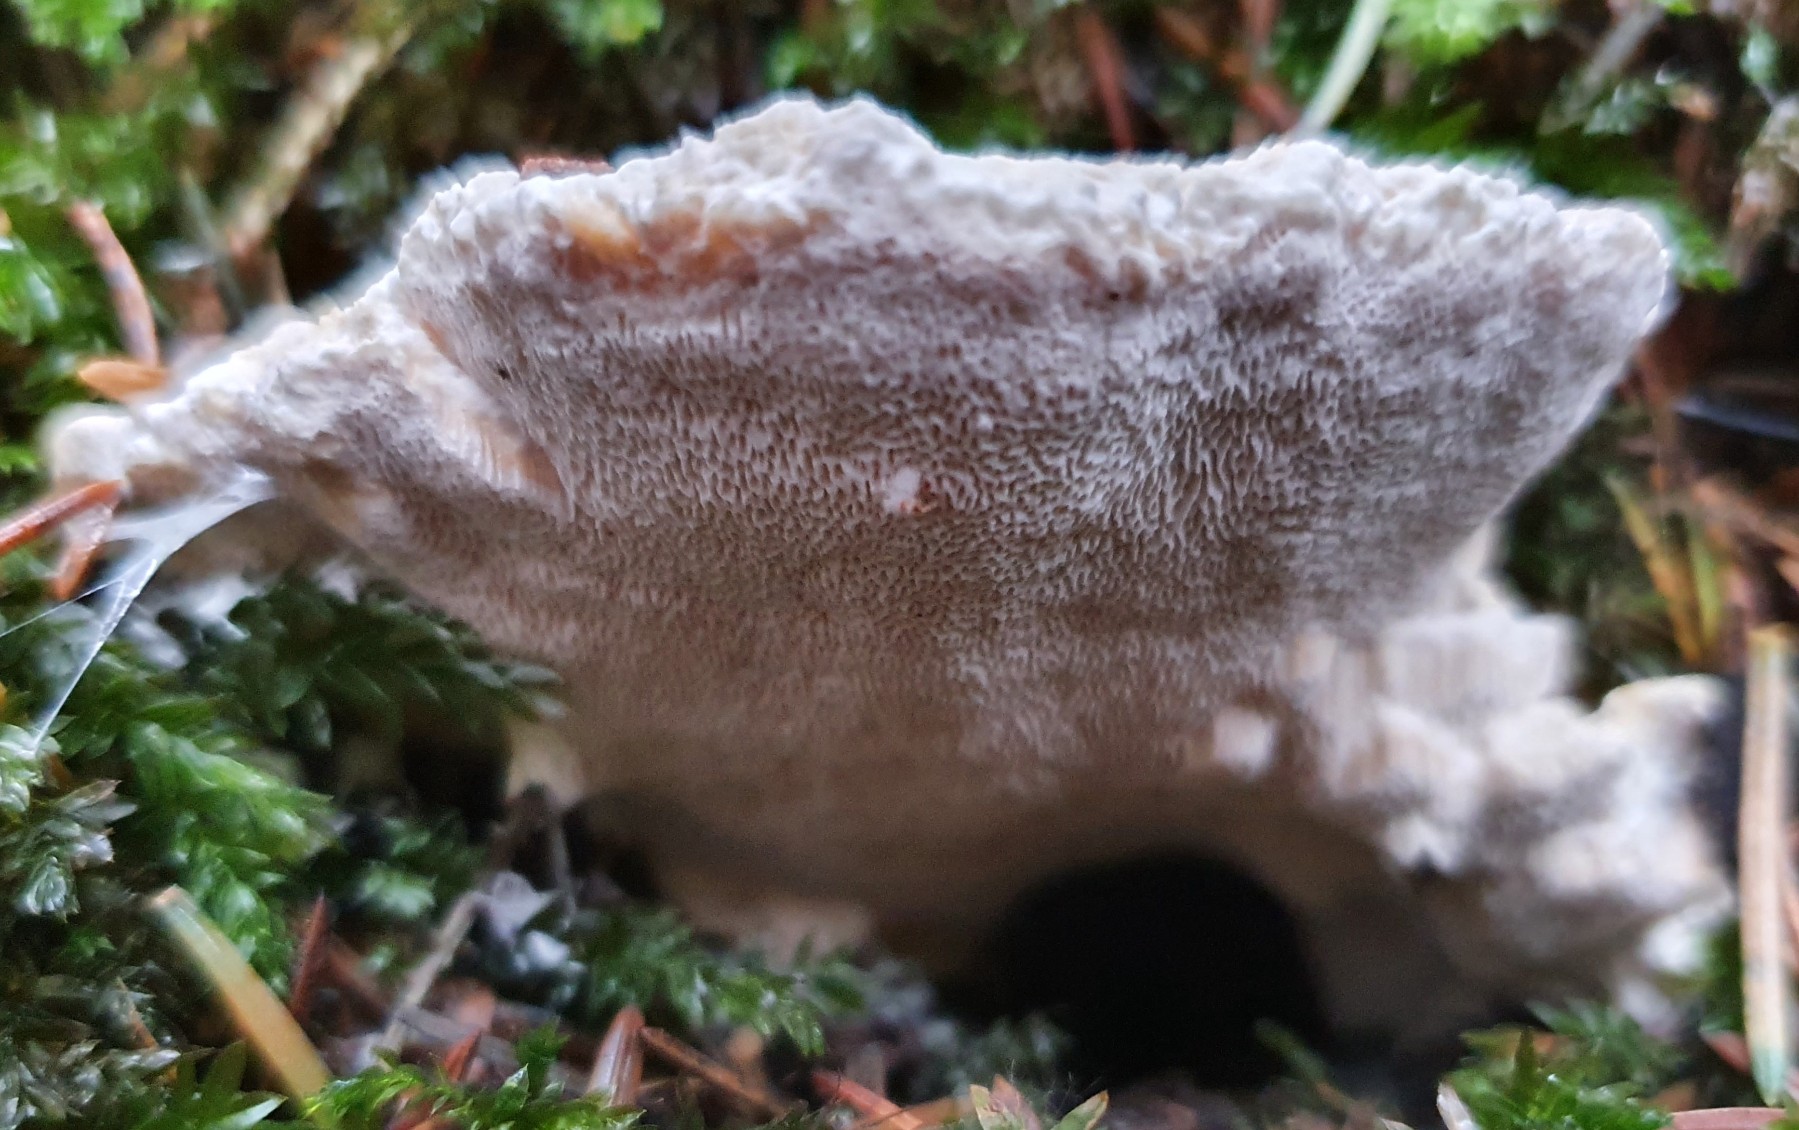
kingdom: Fungi
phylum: Basidiomycota
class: Agaricomycetes
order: Russulales
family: Bondarzewiaceae
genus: Heterobasidion
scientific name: Heterobasidion annosum
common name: almindelig rodfordærver
